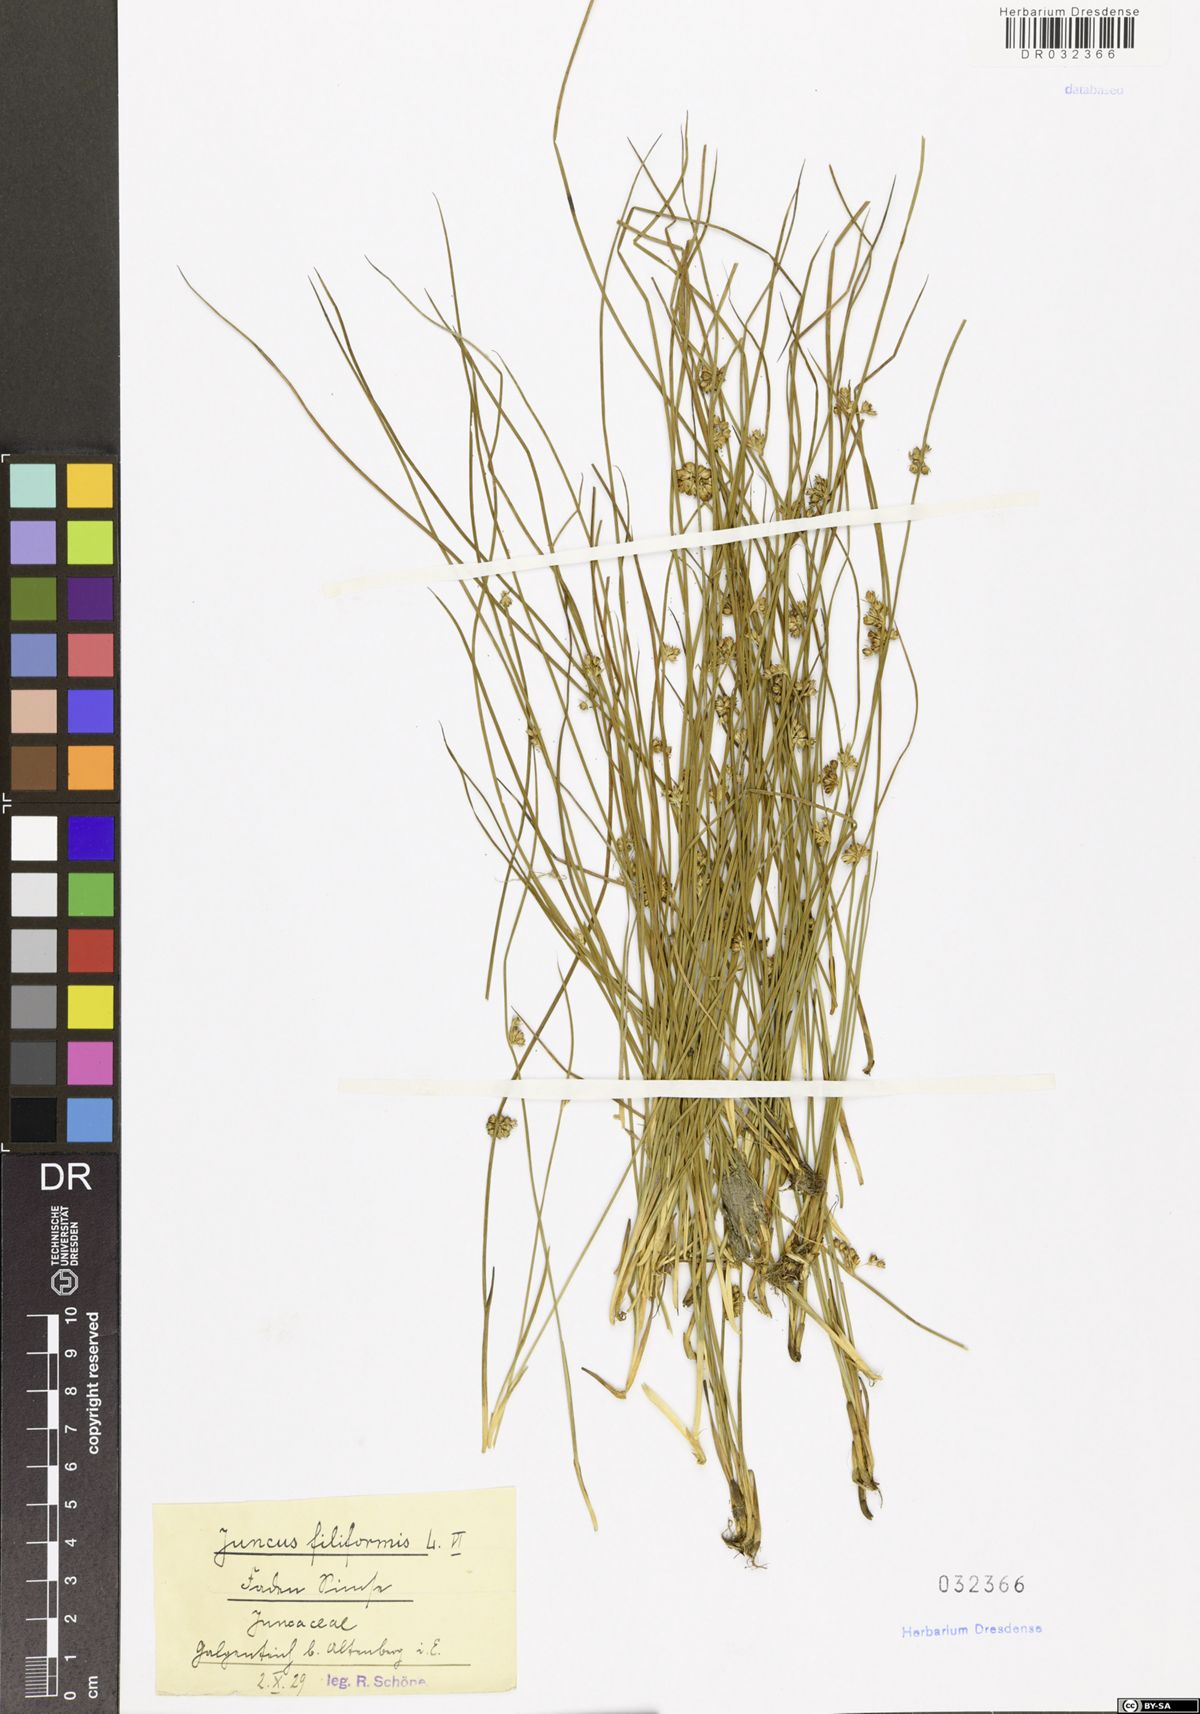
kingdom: Plantae
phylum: Tracheophyta
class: Liliopsida
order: Poales
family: Juncaceae
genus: Juncus
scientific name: Juncus filiformis
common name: Thread rush
